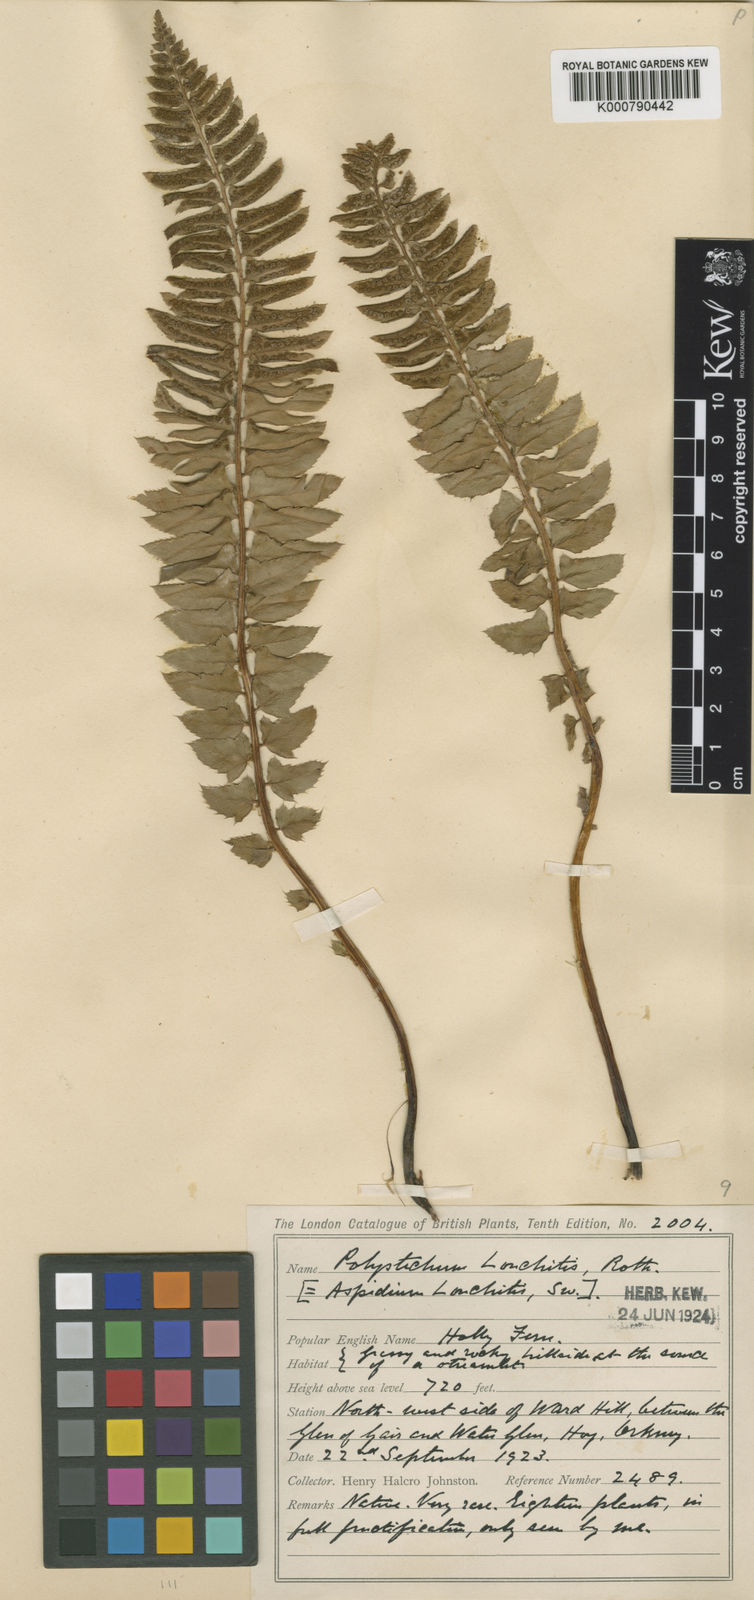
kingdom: Plantae
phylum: Tracheophyta
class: Polypodiopsida
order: Polypodiales
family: Dryopteridaceae
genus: Polystichum
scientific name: Polystichum lonchitis
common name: Holly fern
